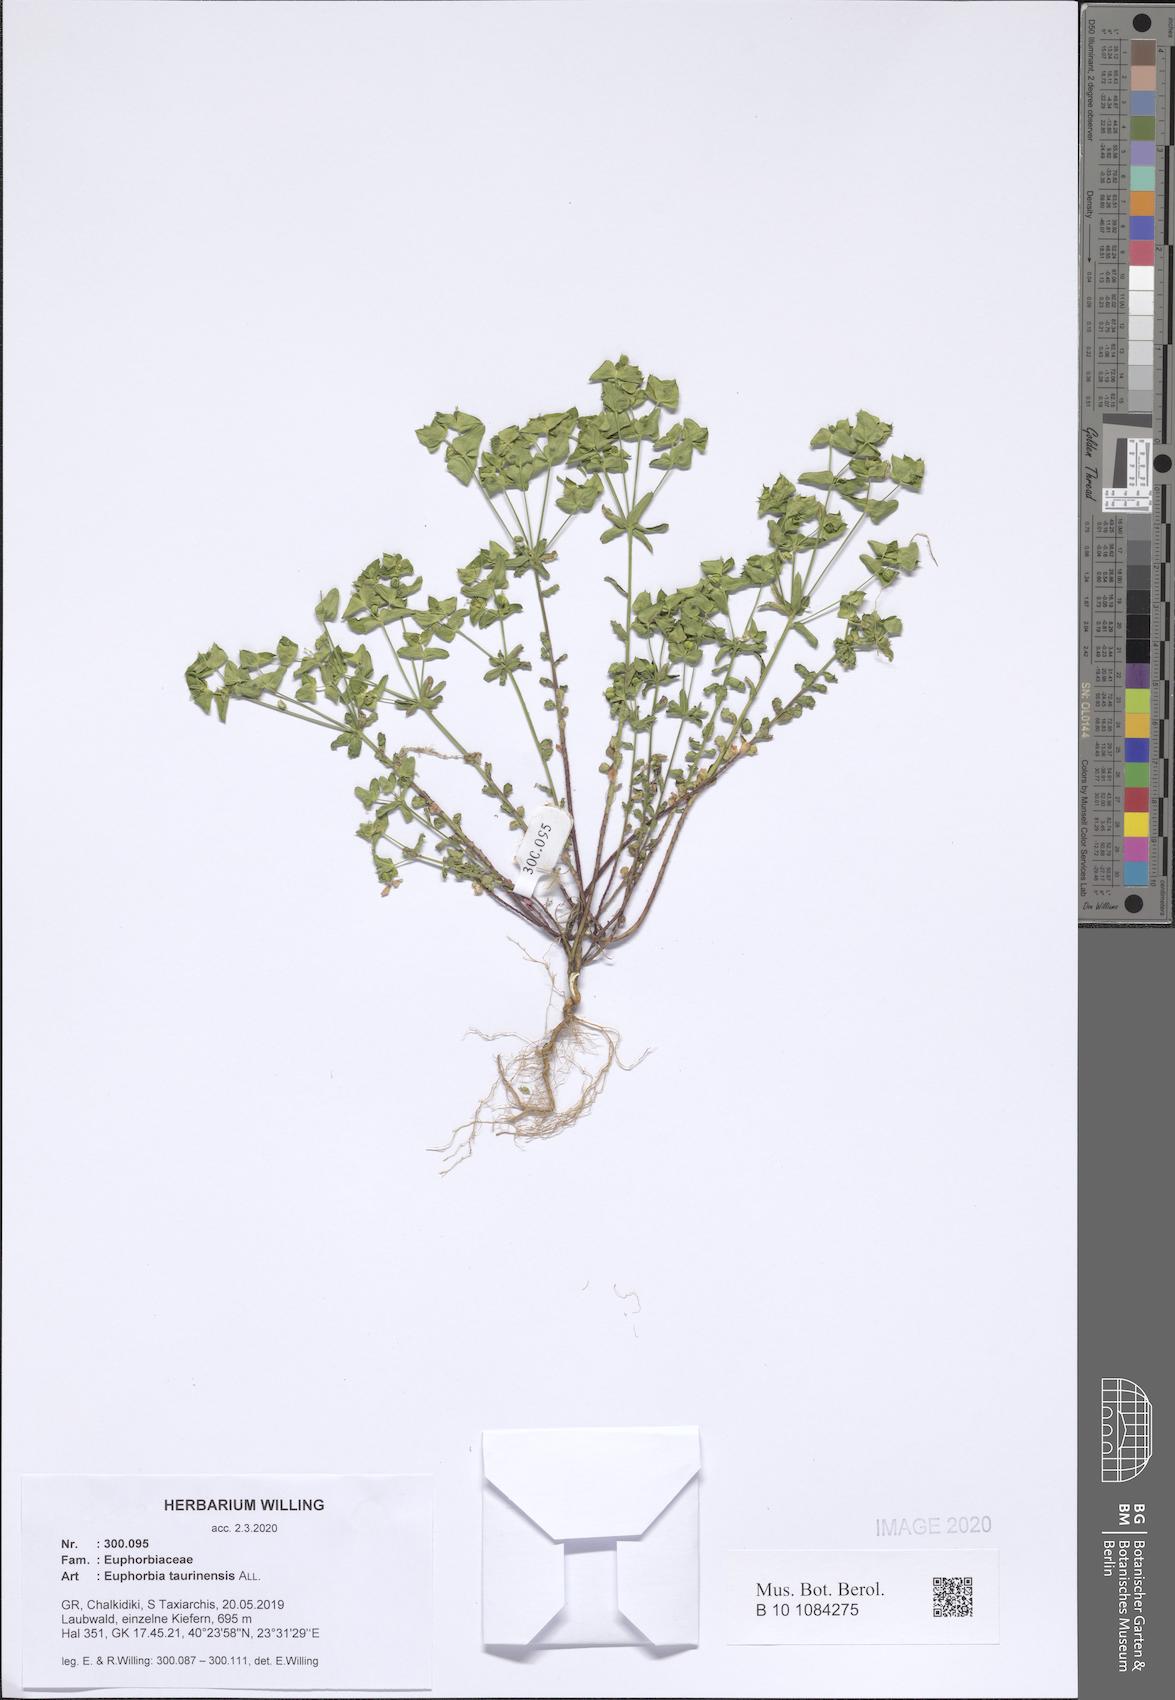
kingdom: Plantae
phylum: Tracheophyta
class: Magnoliopsida
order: Malpighiales
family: Euphorbiaceae
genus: Euphorbia
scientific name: Euphorbia taurinensis
